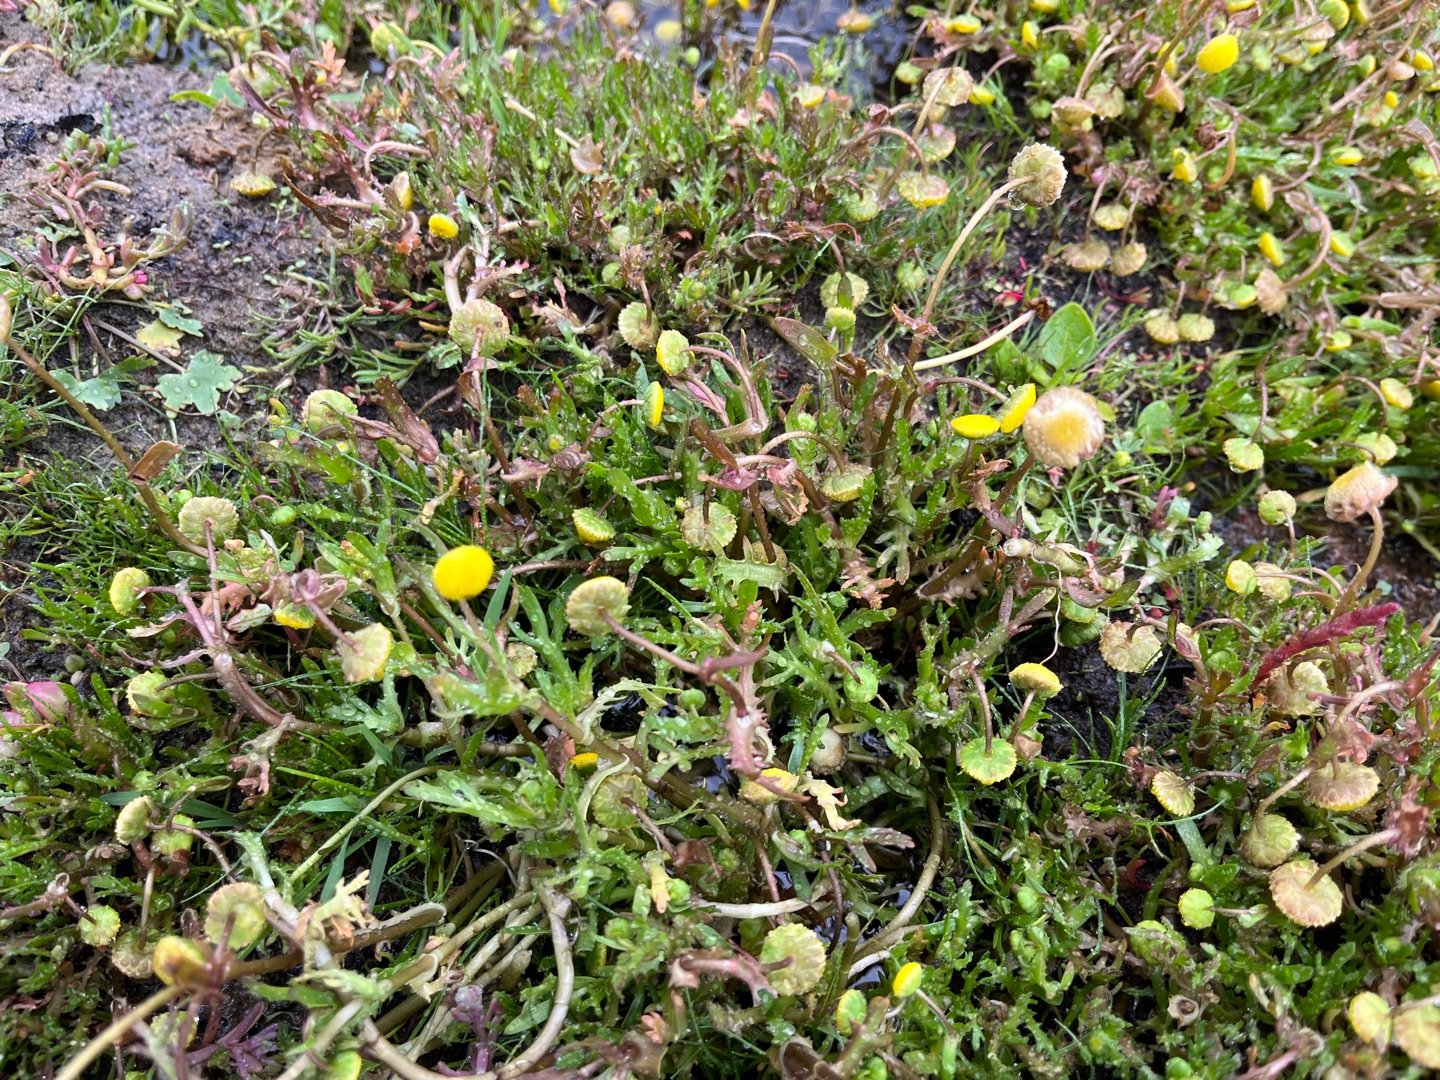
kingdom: Plantae
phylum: Tracheophyta
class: Magnoliopsida
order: Asterales
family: Asteraceae
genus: Cotula
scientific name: Cotula coronopifolia
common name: Firkløft
